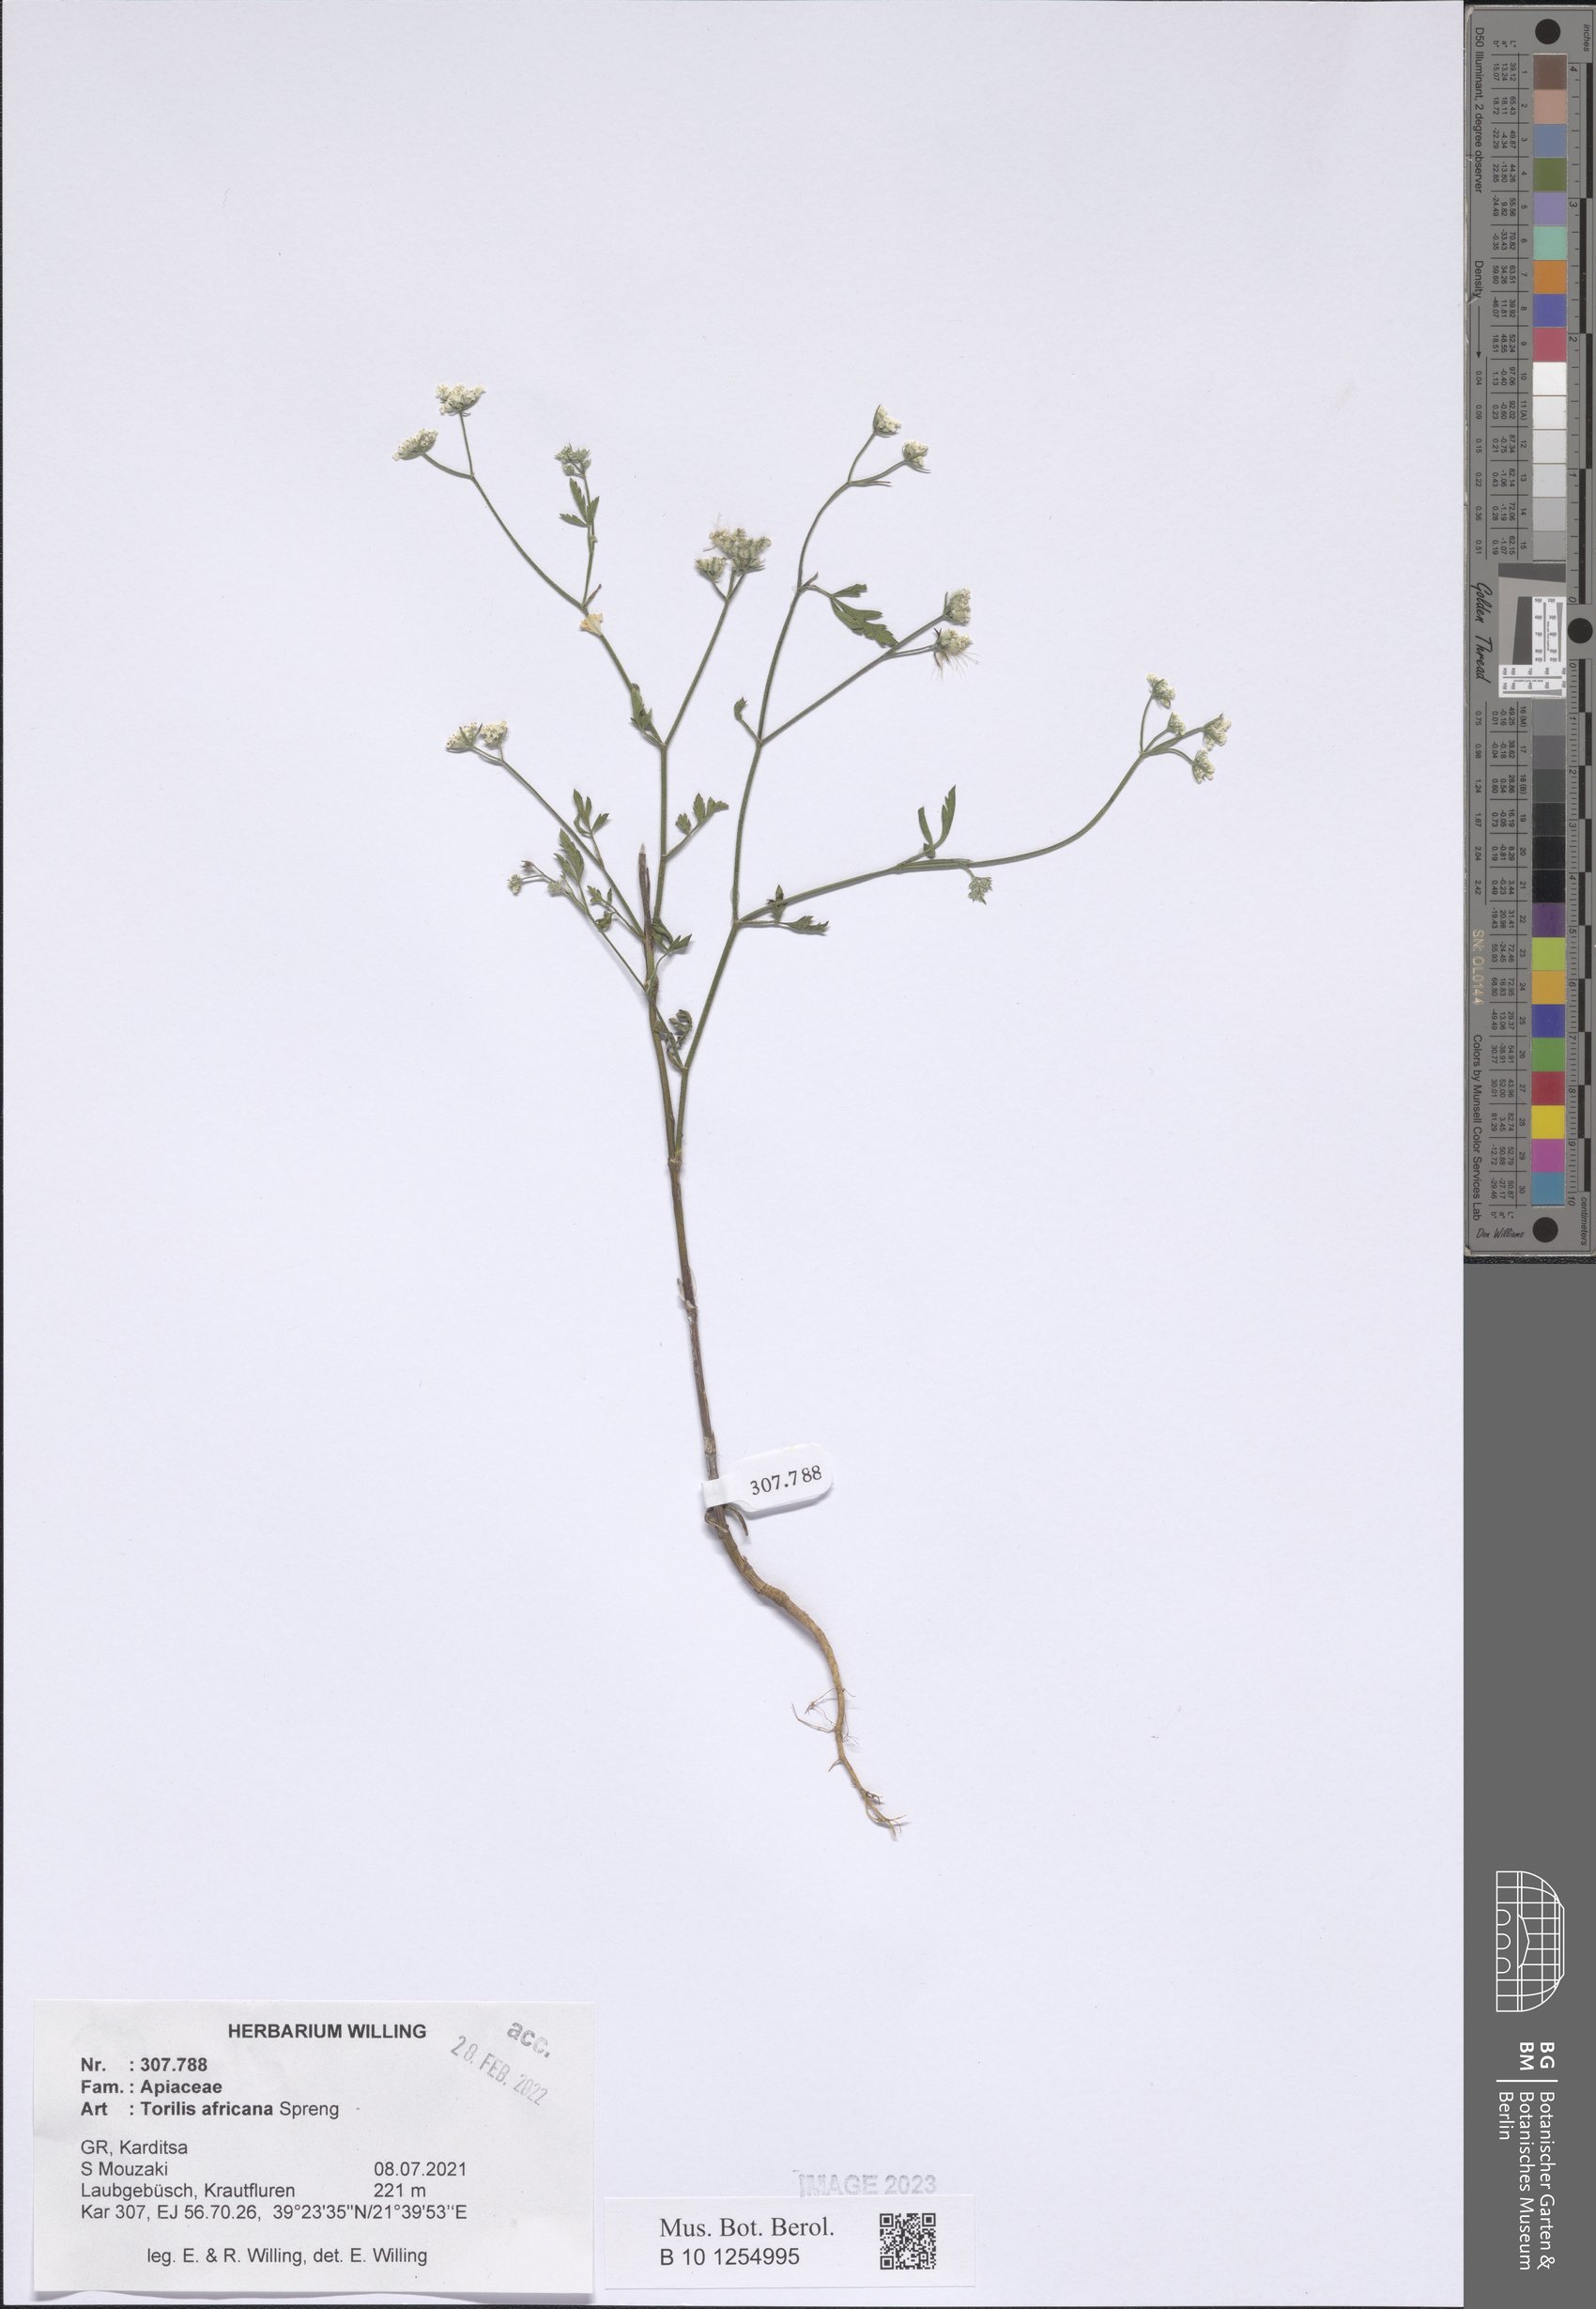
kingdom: Plantae
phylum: Tracheophyta
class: Magnoliopsida
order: Apiales
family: Apiaceae
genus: Torilis
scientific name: Torilis africana
